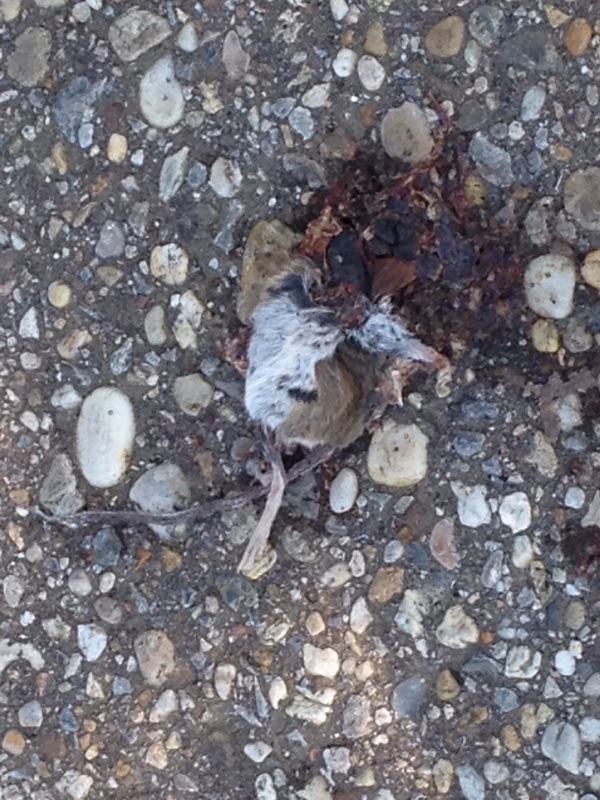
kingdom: Animalia
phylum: Chordata
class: Mammalia
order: Rodentia
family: Muridae
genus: Apodemus
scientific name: Apodemus
